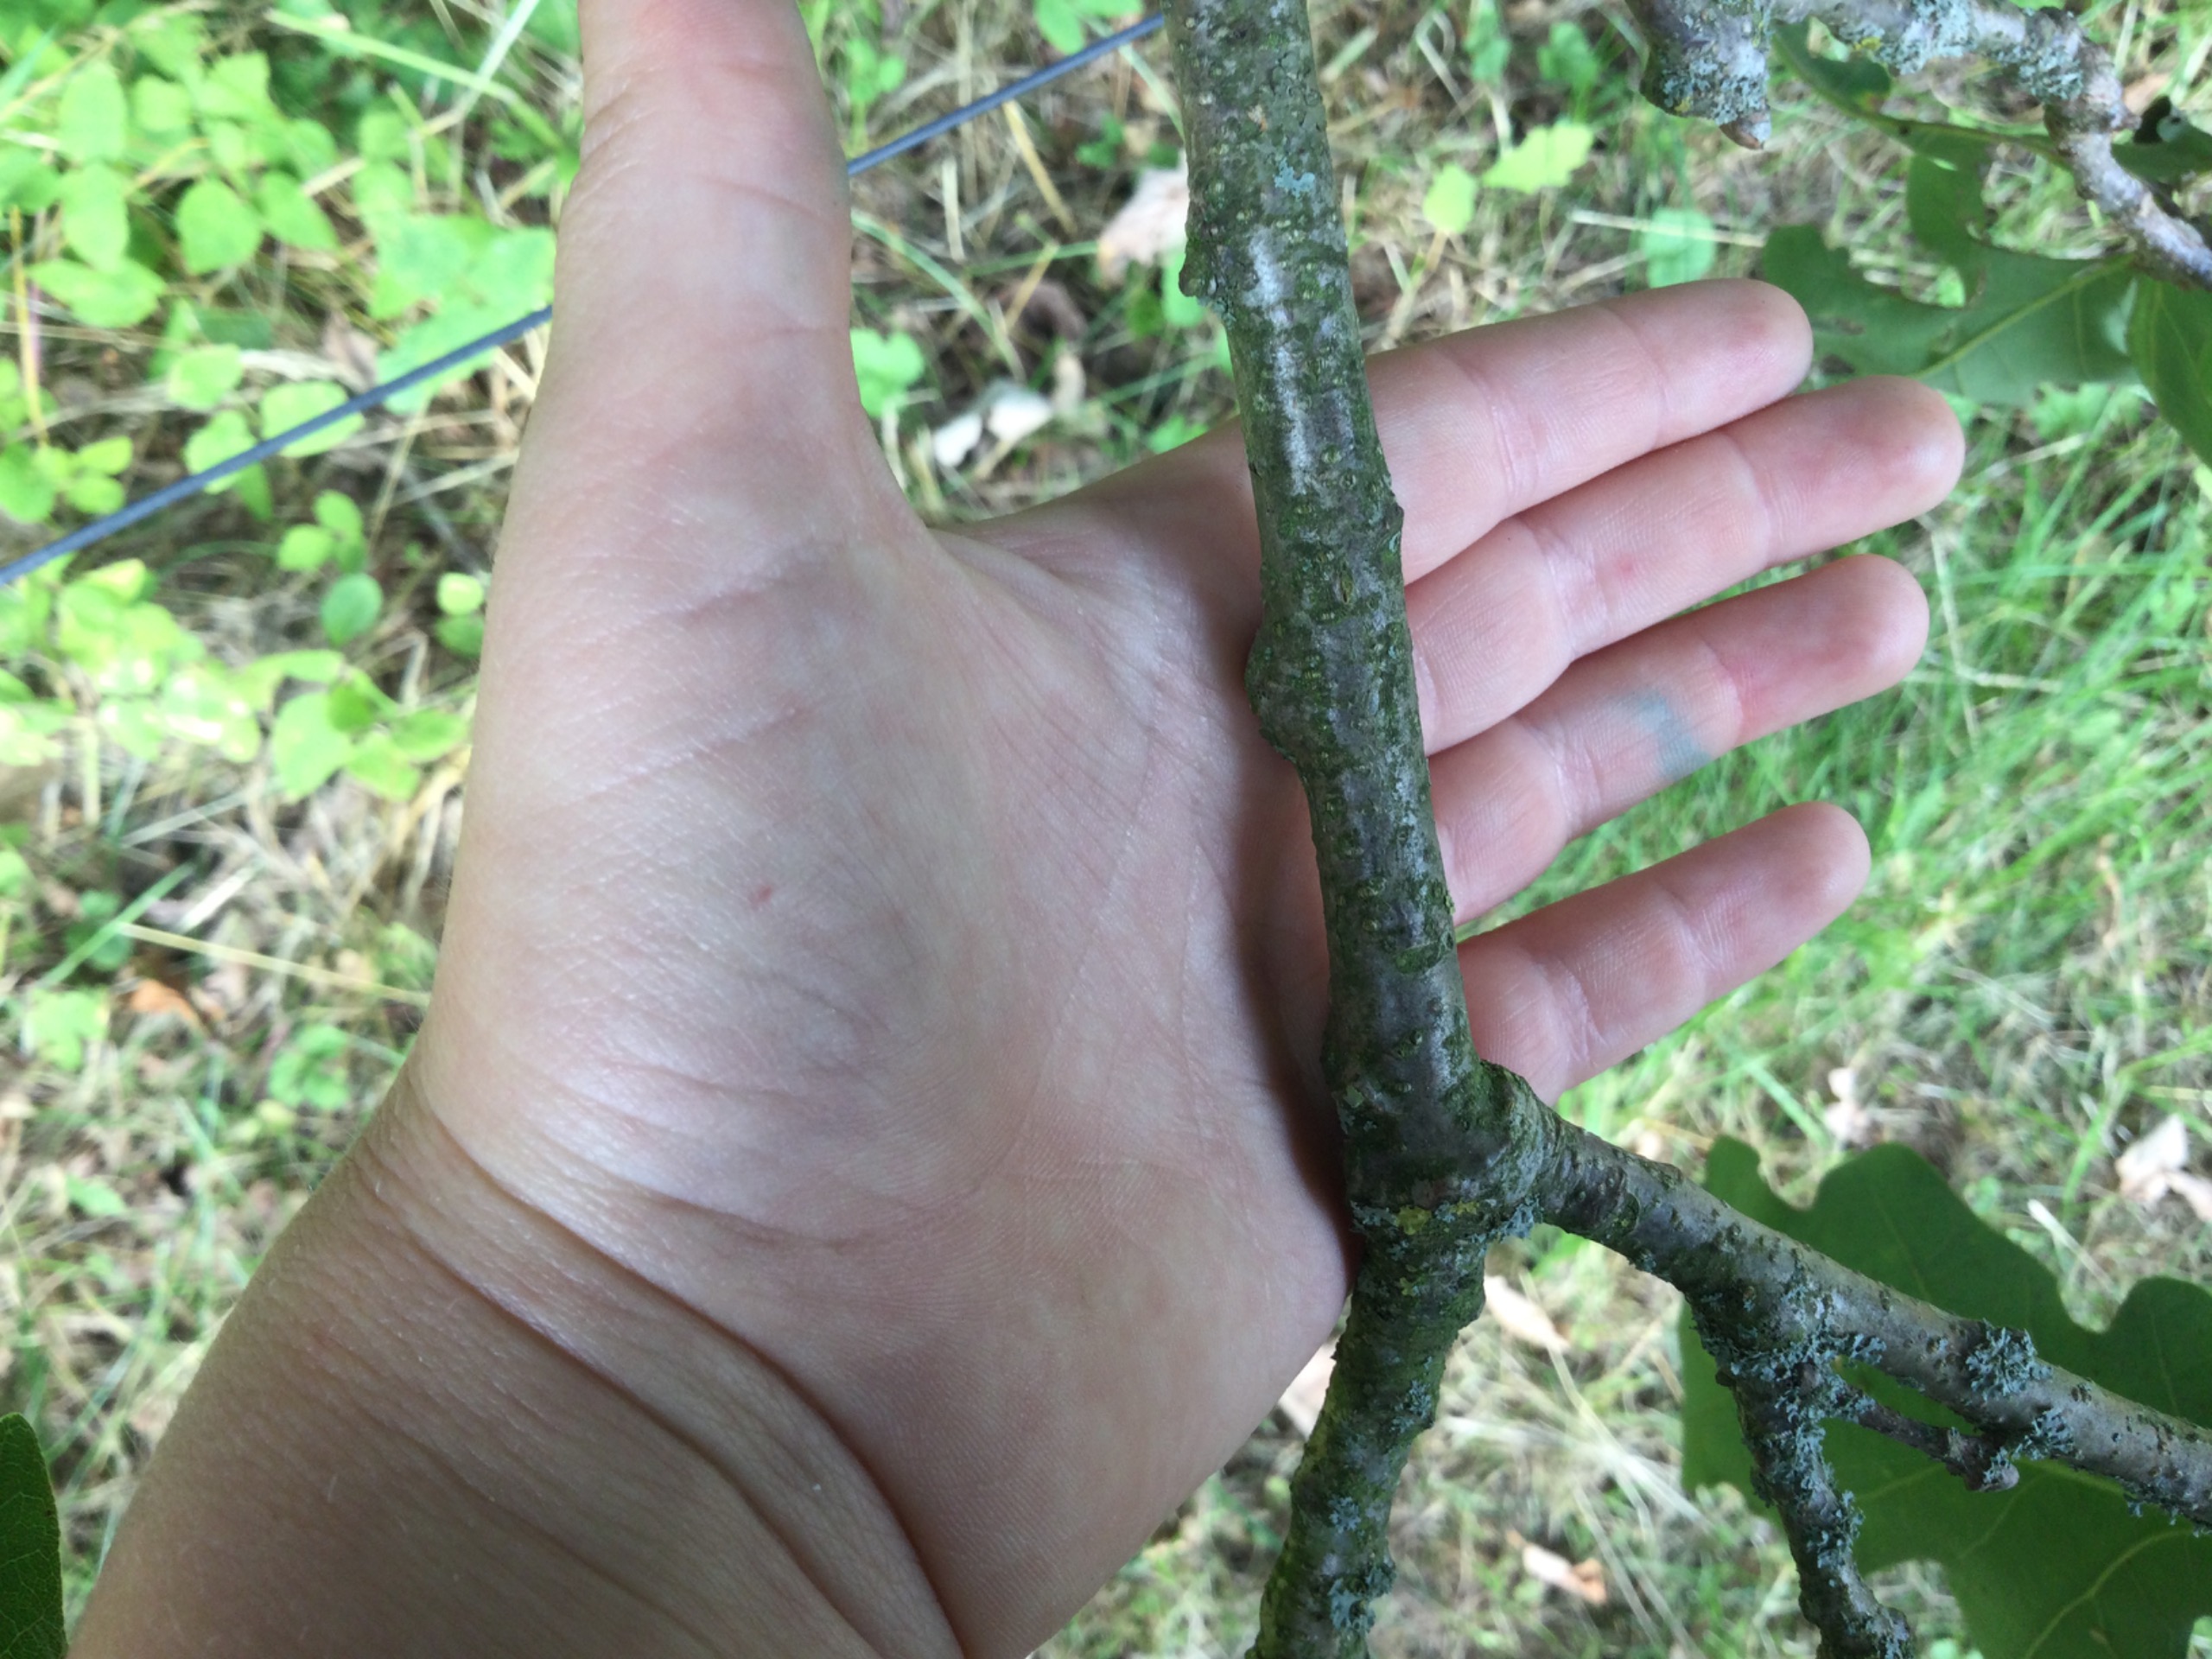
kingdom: Plantae
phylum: Tracheophyta
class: Magnoliopsida
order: Fagales
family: Fagaceae
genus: Quercus
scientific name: Quercus robur
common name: Stilk-eg/almindelig eg
